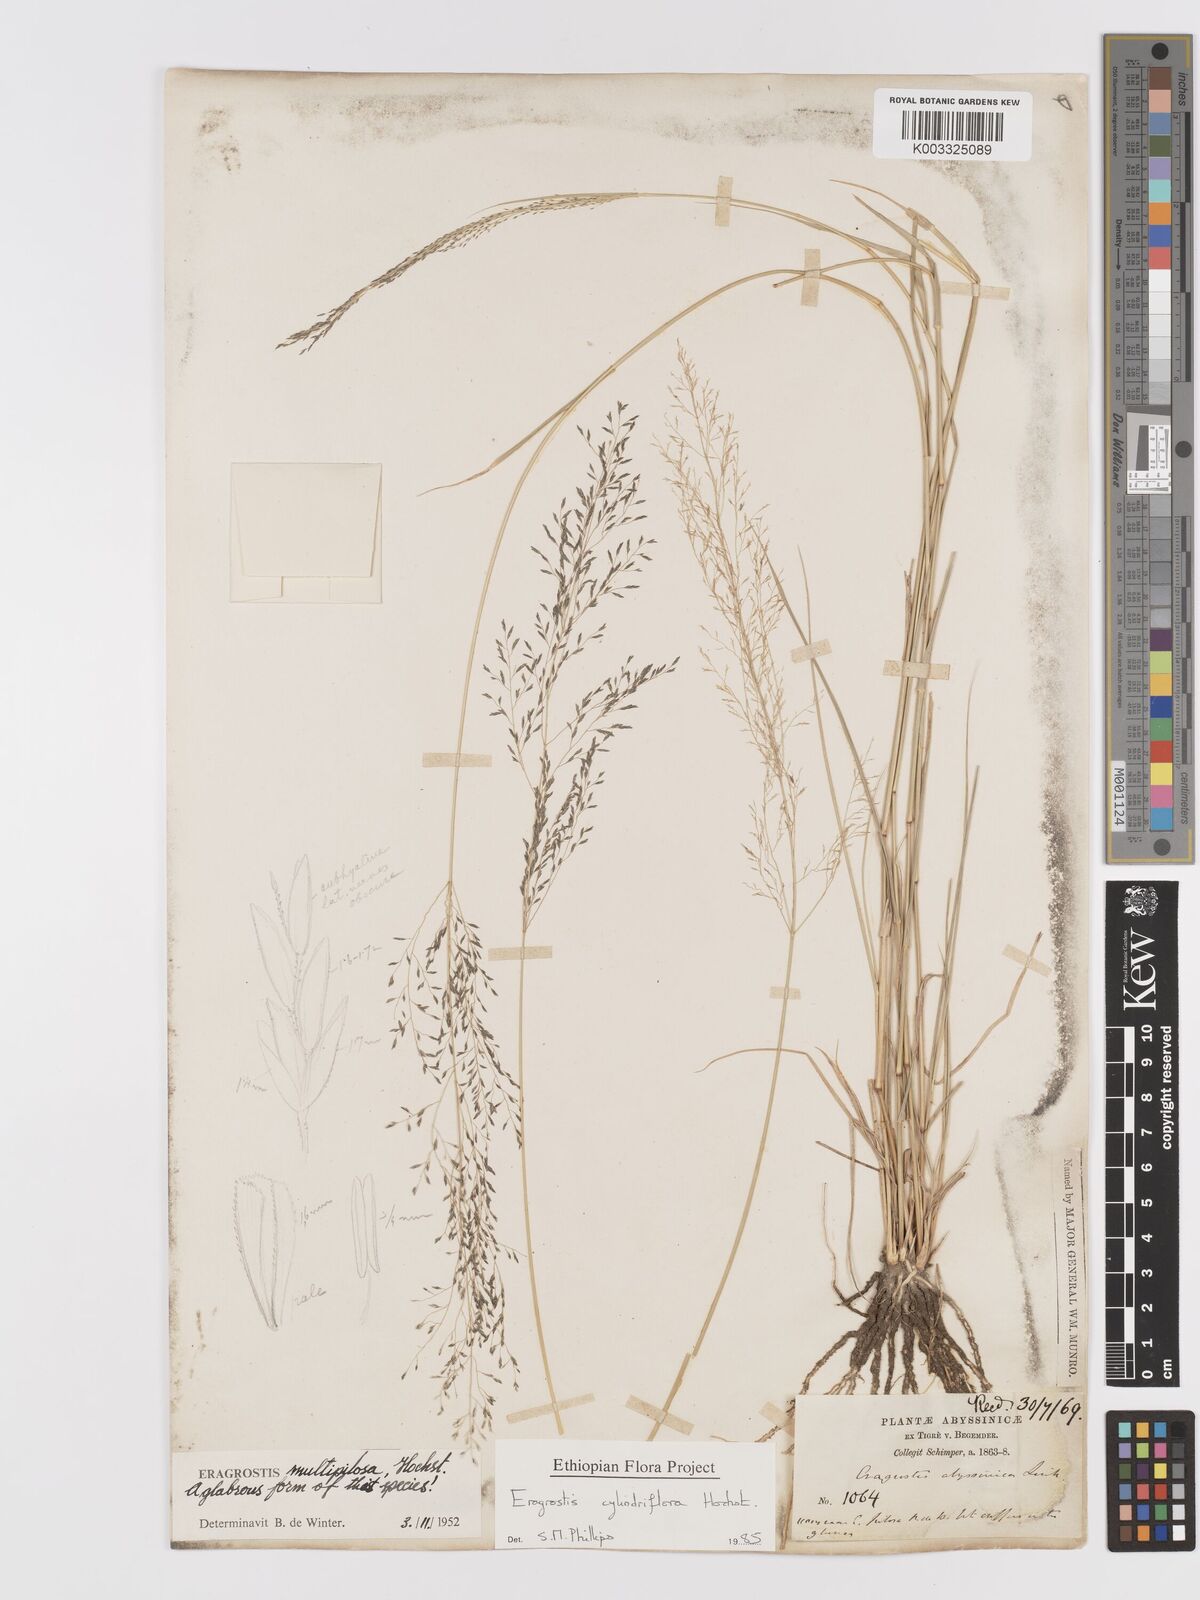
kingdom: Plantae
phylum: Tracheophyta
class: Liliopsida
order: Poales
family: Poaceae
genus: Eragrostis
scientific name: Eragrostis cylindriflora
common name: Cylinderflower lovegrass
